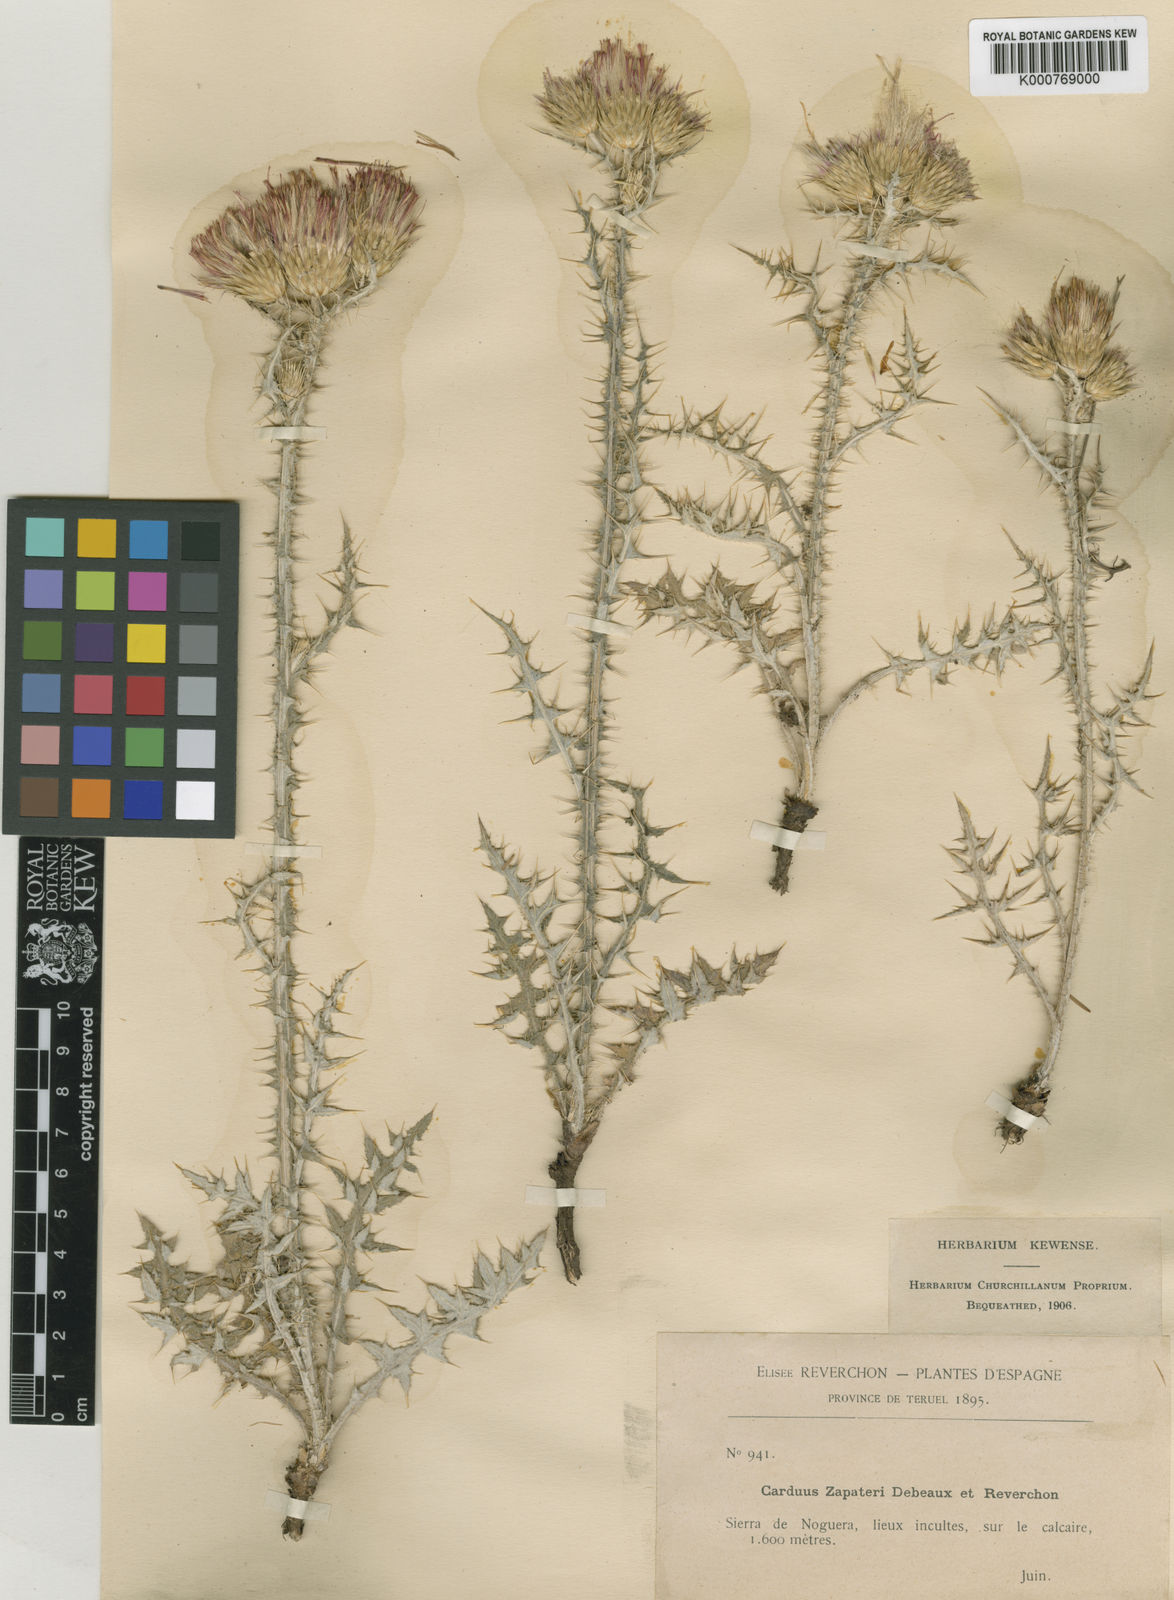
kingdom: Plantae
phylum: Tracheophyta
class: Magnoliopsida
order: Asterales
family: Asteraceae
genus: Carduus
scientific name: Carduus carpetanus
